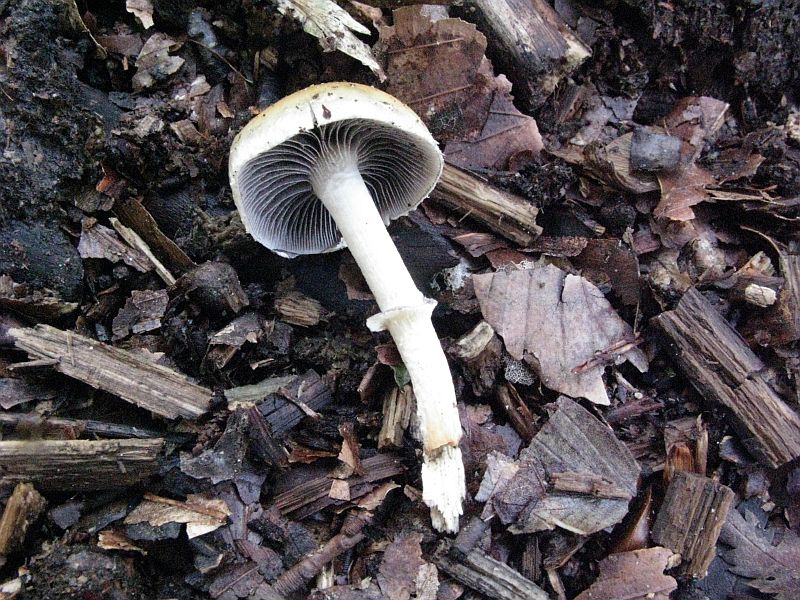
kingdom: Fungi
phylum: Basidiomycota
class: Agaricomycetes
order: Agaricales
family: Strophariaceae
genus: Leratiomyces
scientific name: Leratiomyces squamosus
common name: skællet bredblad
